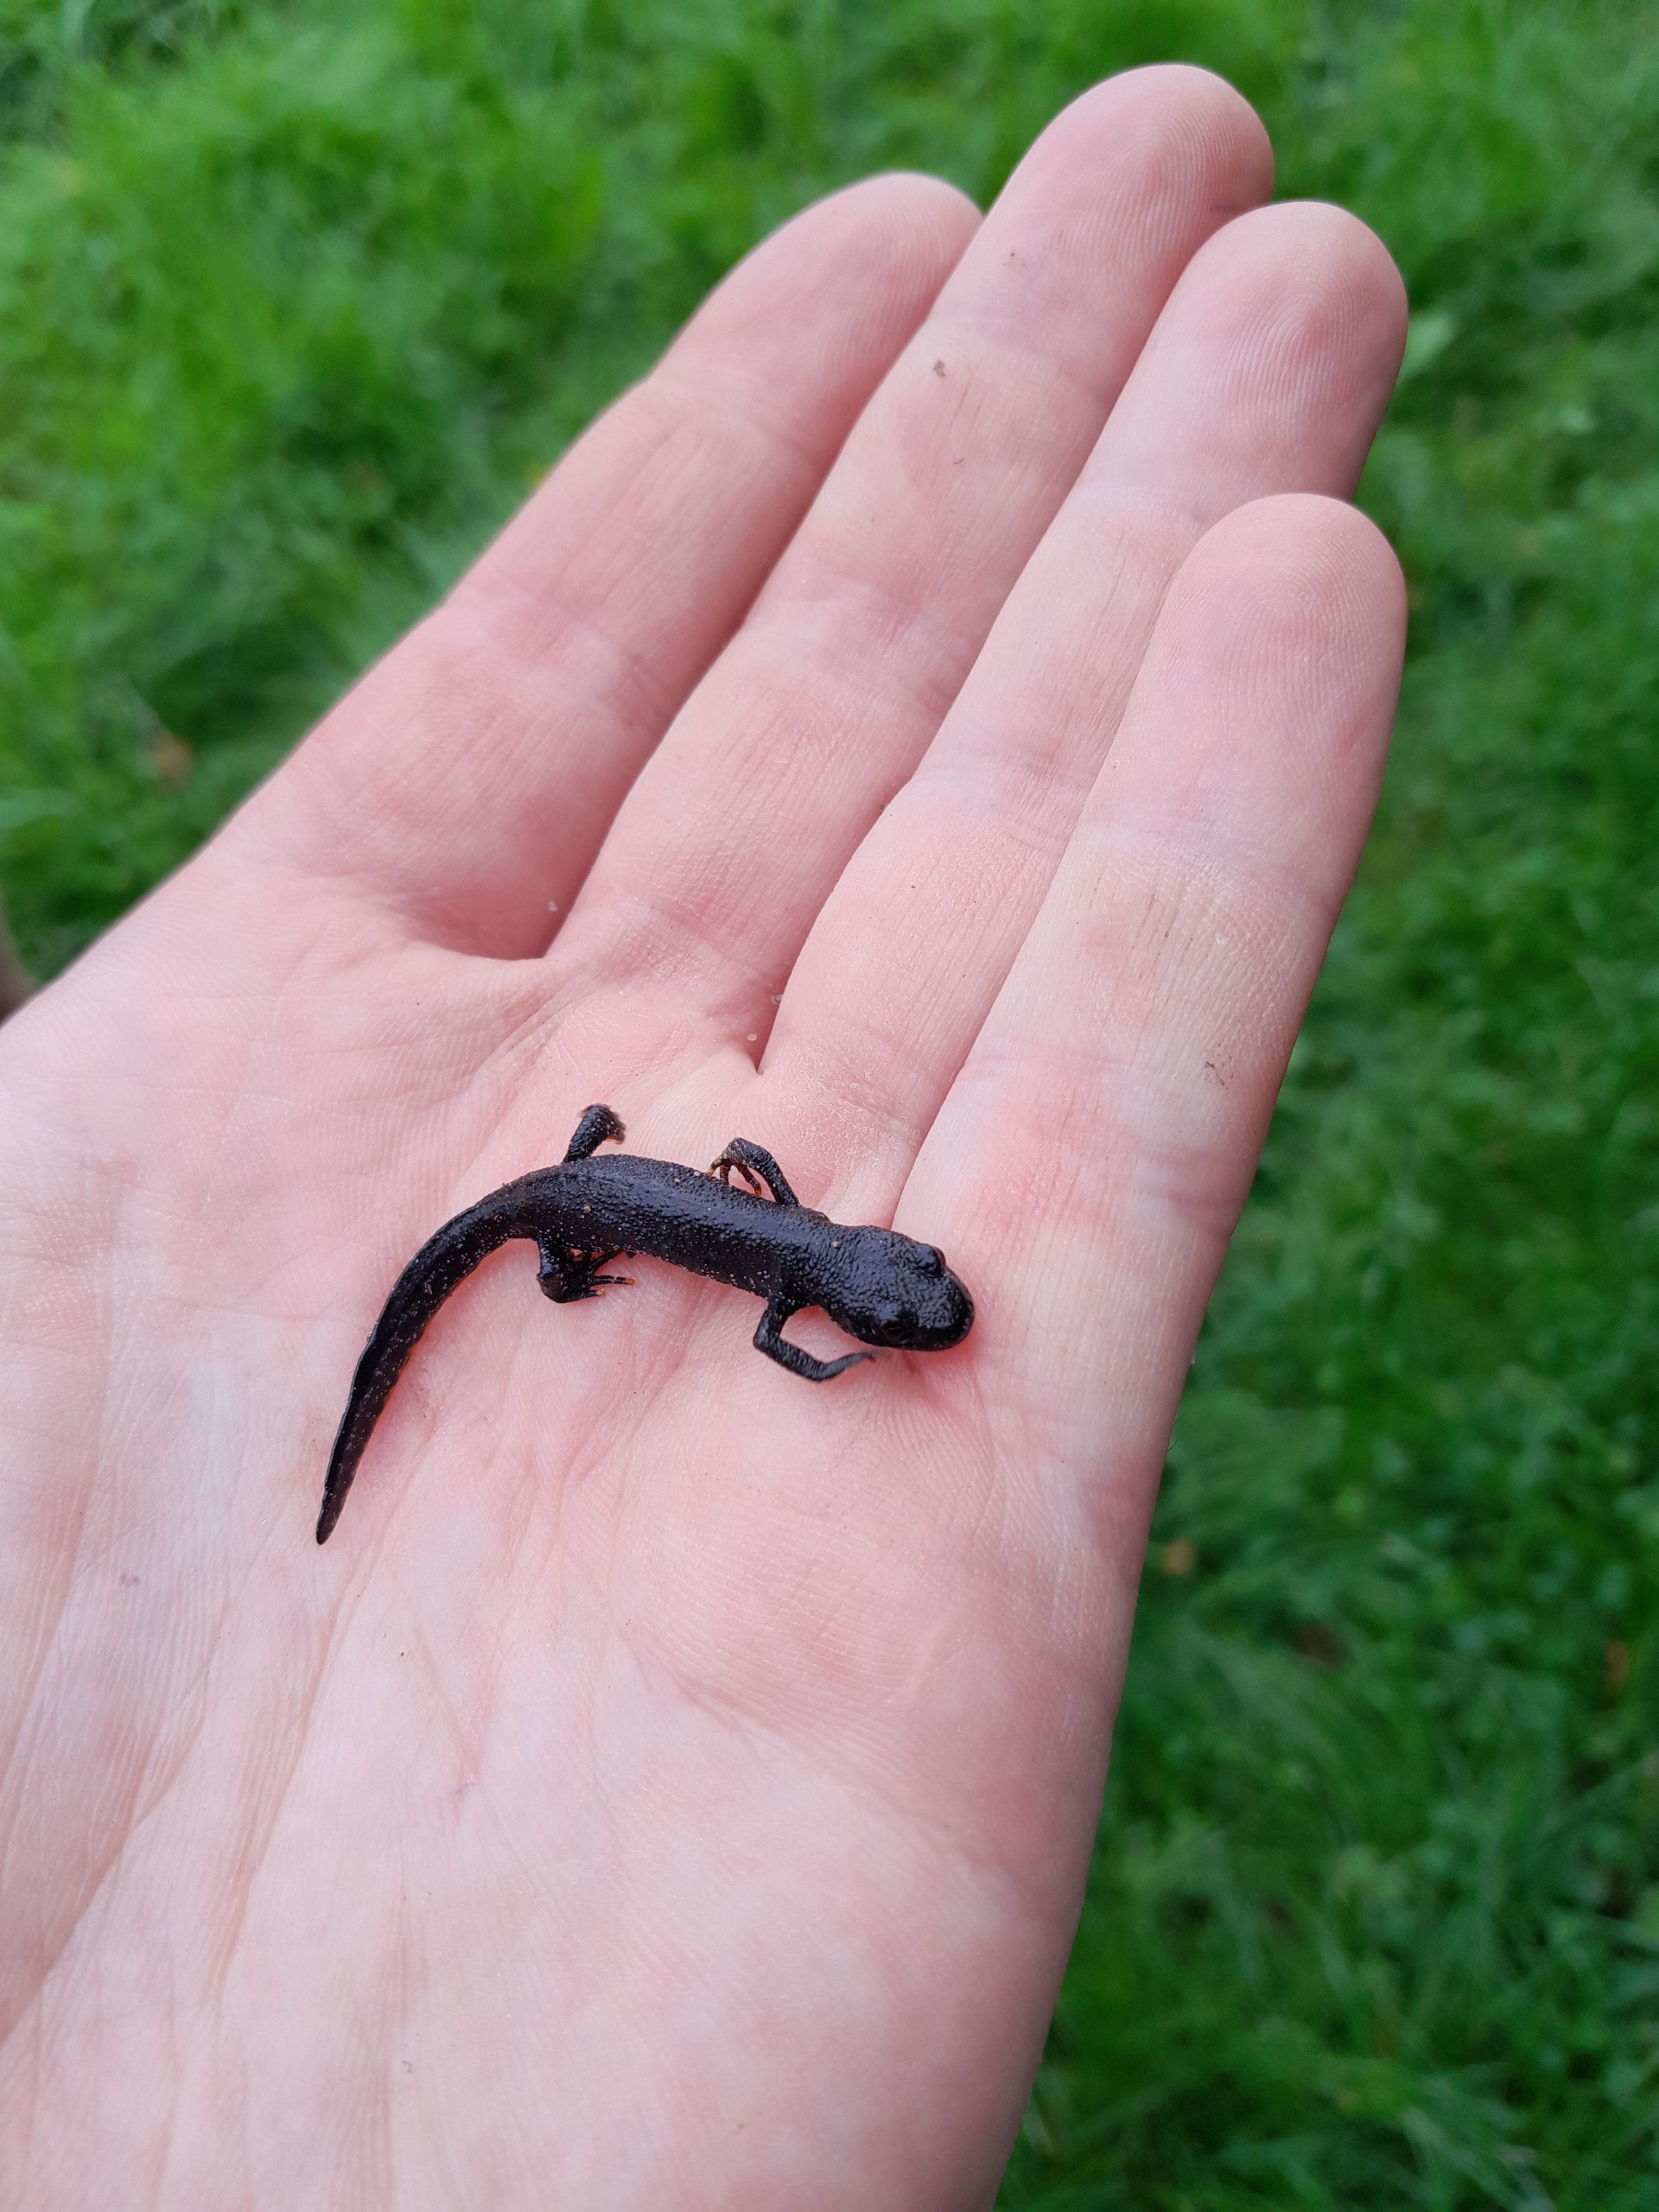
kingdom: Animalia
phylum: Chordata
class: Amphibia
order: Caudata
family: Salamandridae
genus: Triturus
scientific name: Triturus cristatus
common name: Stor vandsalamander
